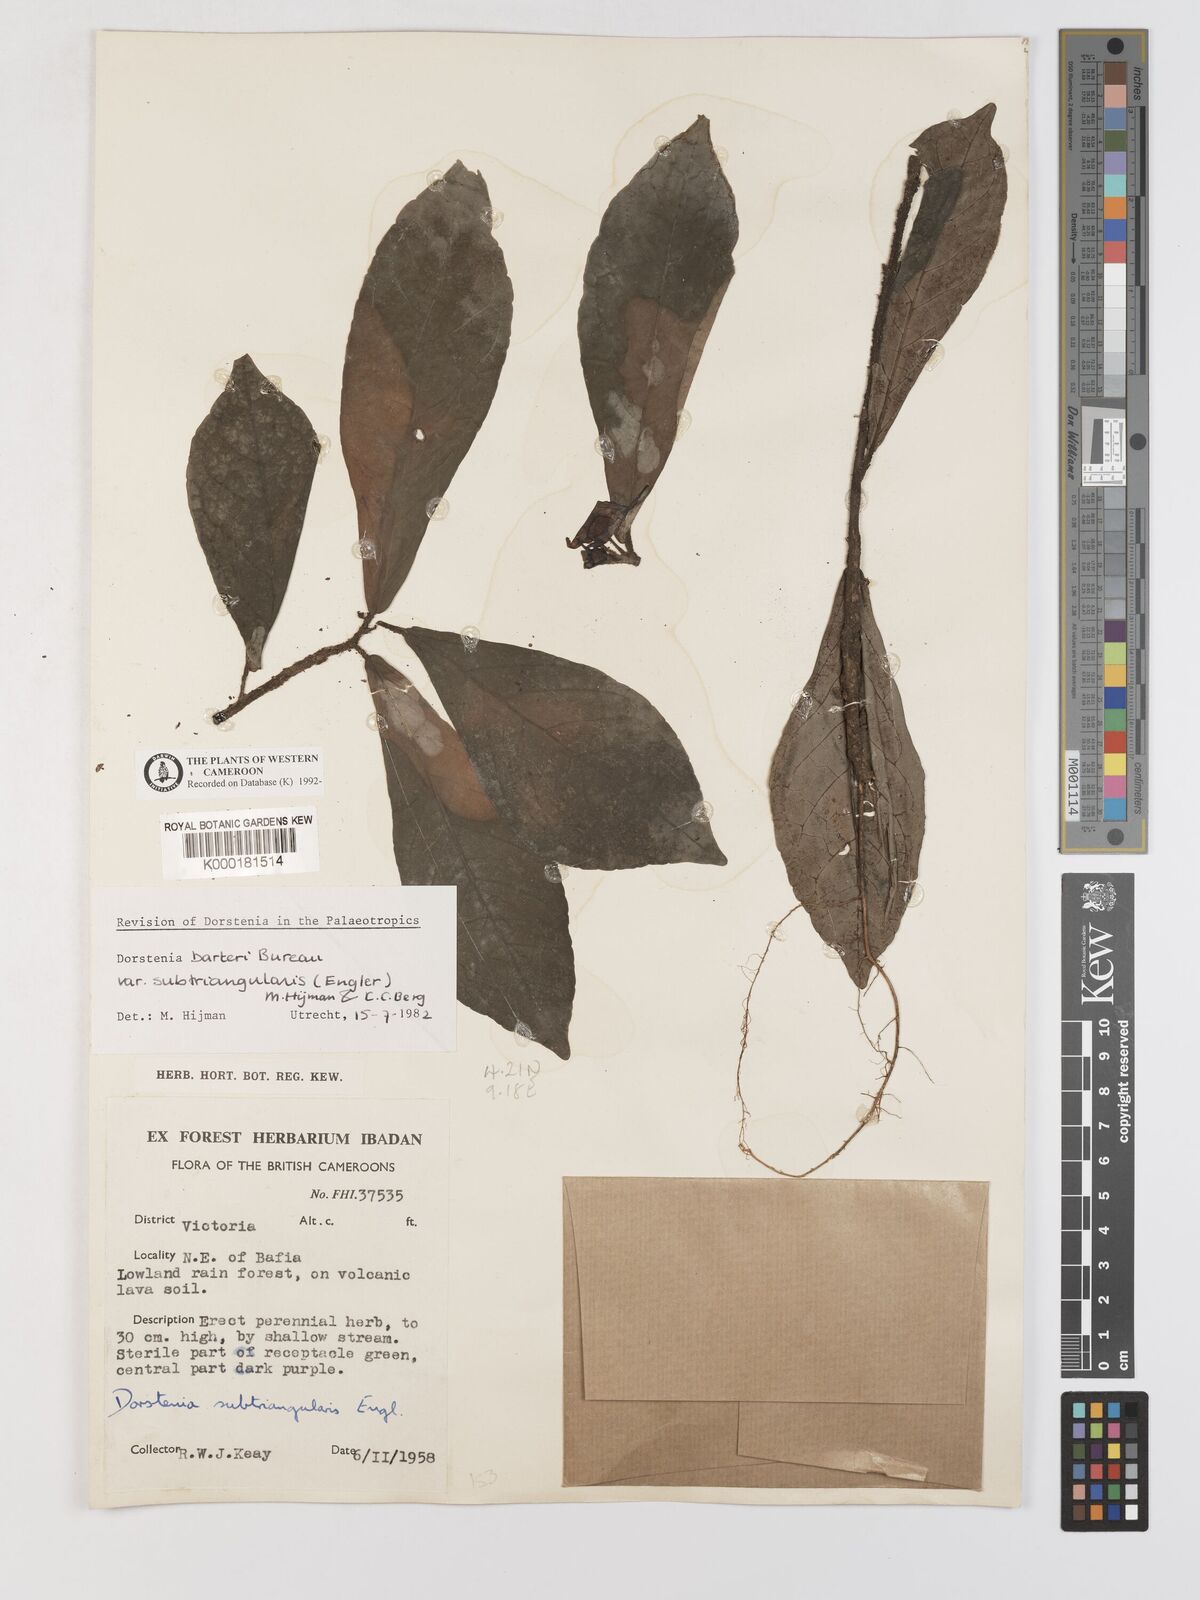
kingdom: Plantae
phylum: Tracheophyta
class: Magnoliopsida
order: Rosales
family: Moraceae
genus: Dorstenia
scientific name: Dorstenia barteri
